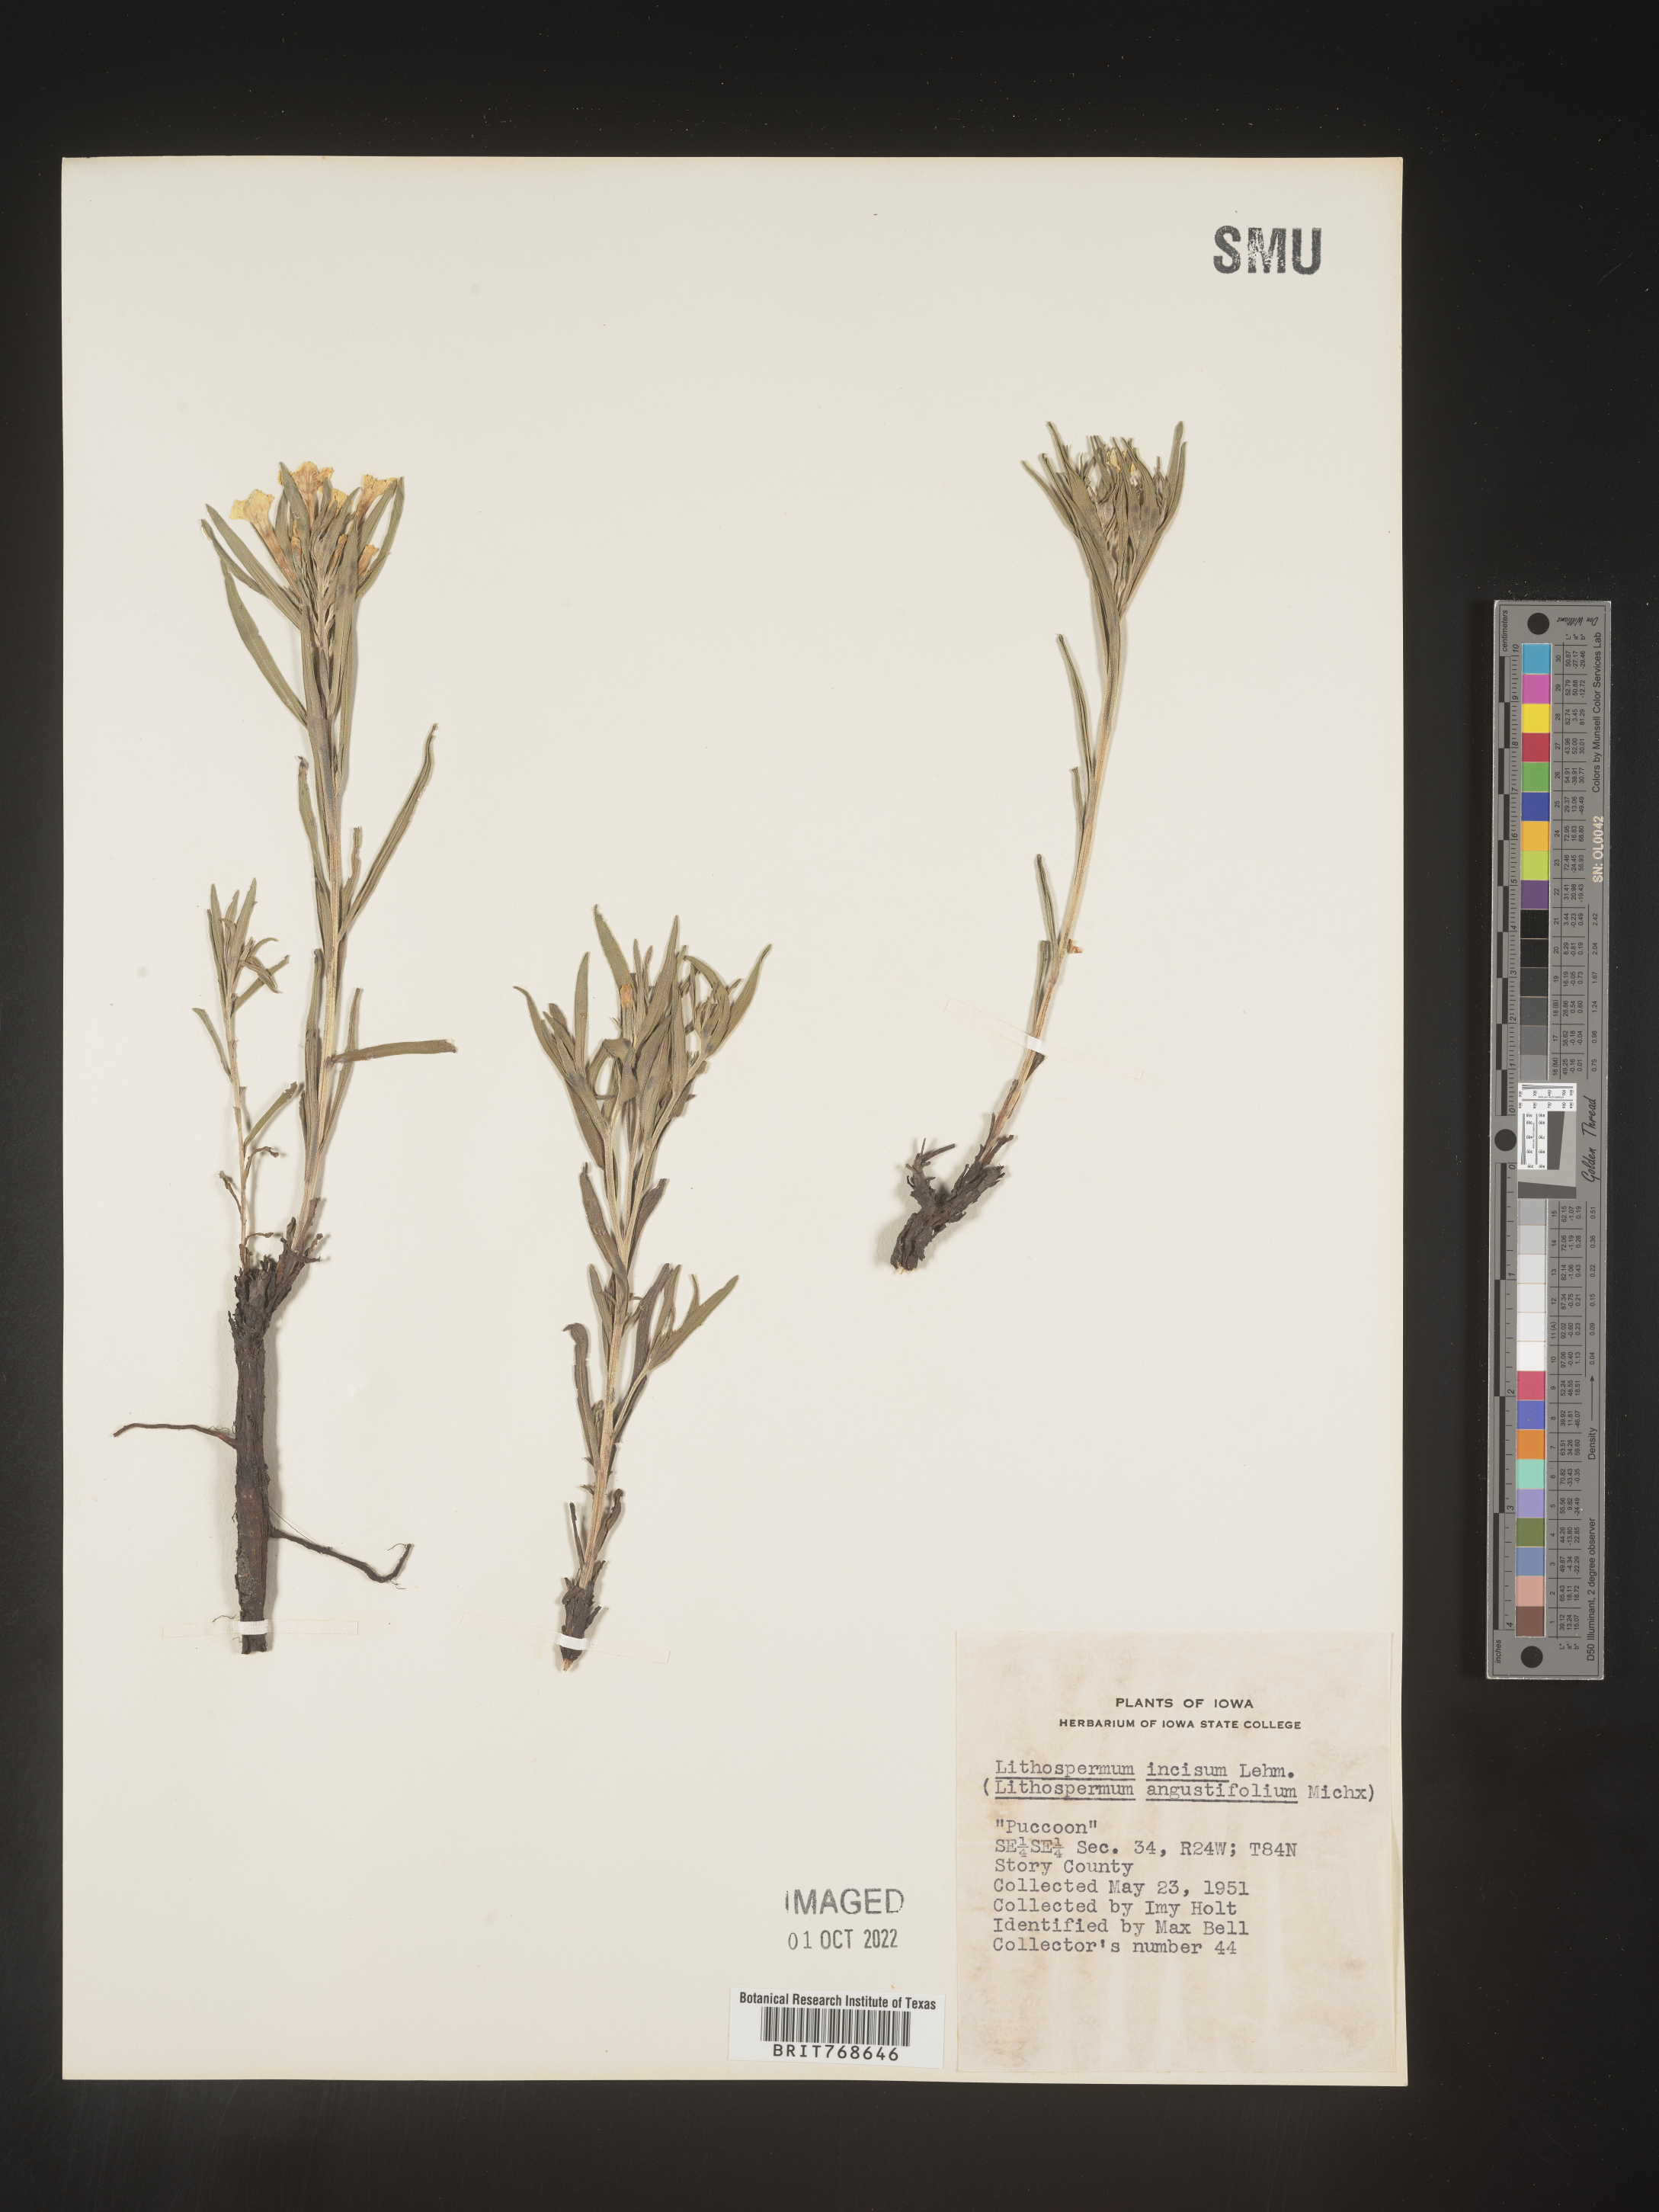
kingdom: Plantae
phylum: Tracheophyta
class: Magnoliopsida
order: Boraginales
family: Boraginaceae
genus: Lithospermum
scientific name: Lithospermum incisum
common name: Fringed gromwell
